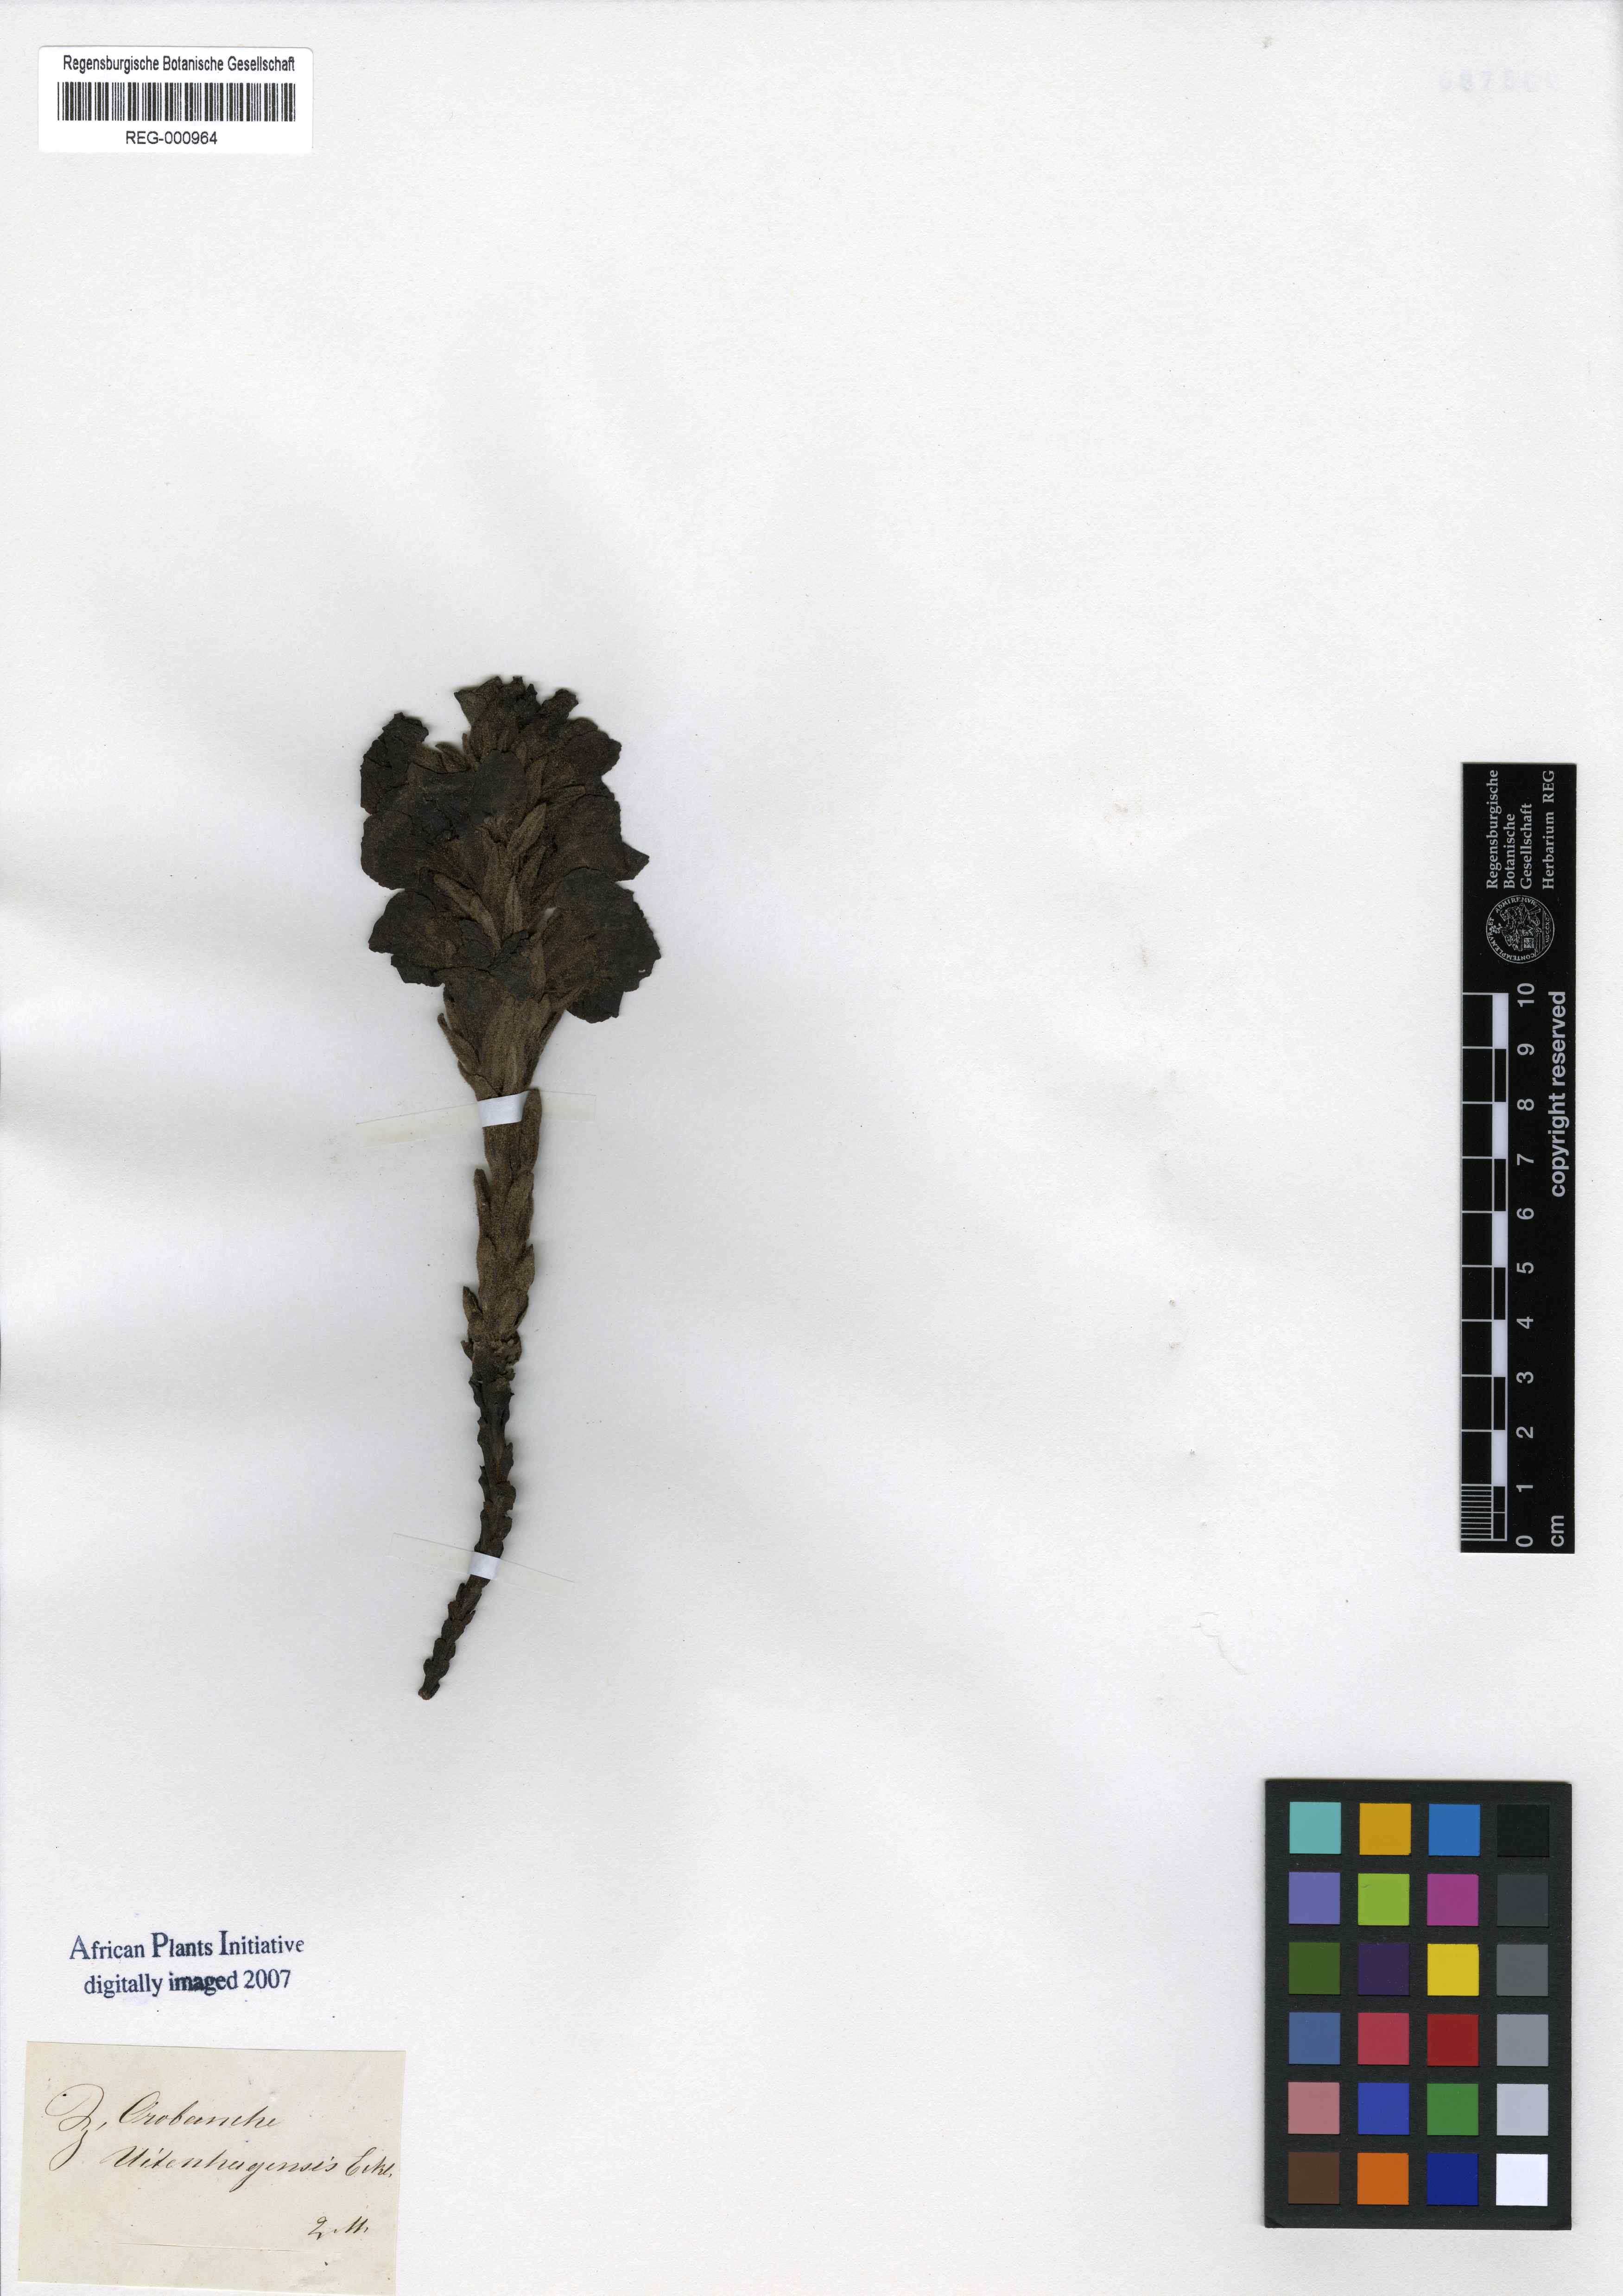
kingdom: Plantae
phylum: Tracheophyta
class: Magnoliopsida
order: Lamiales
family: Orobanchaceae
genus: Harveya
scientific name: Harveya purpurea
